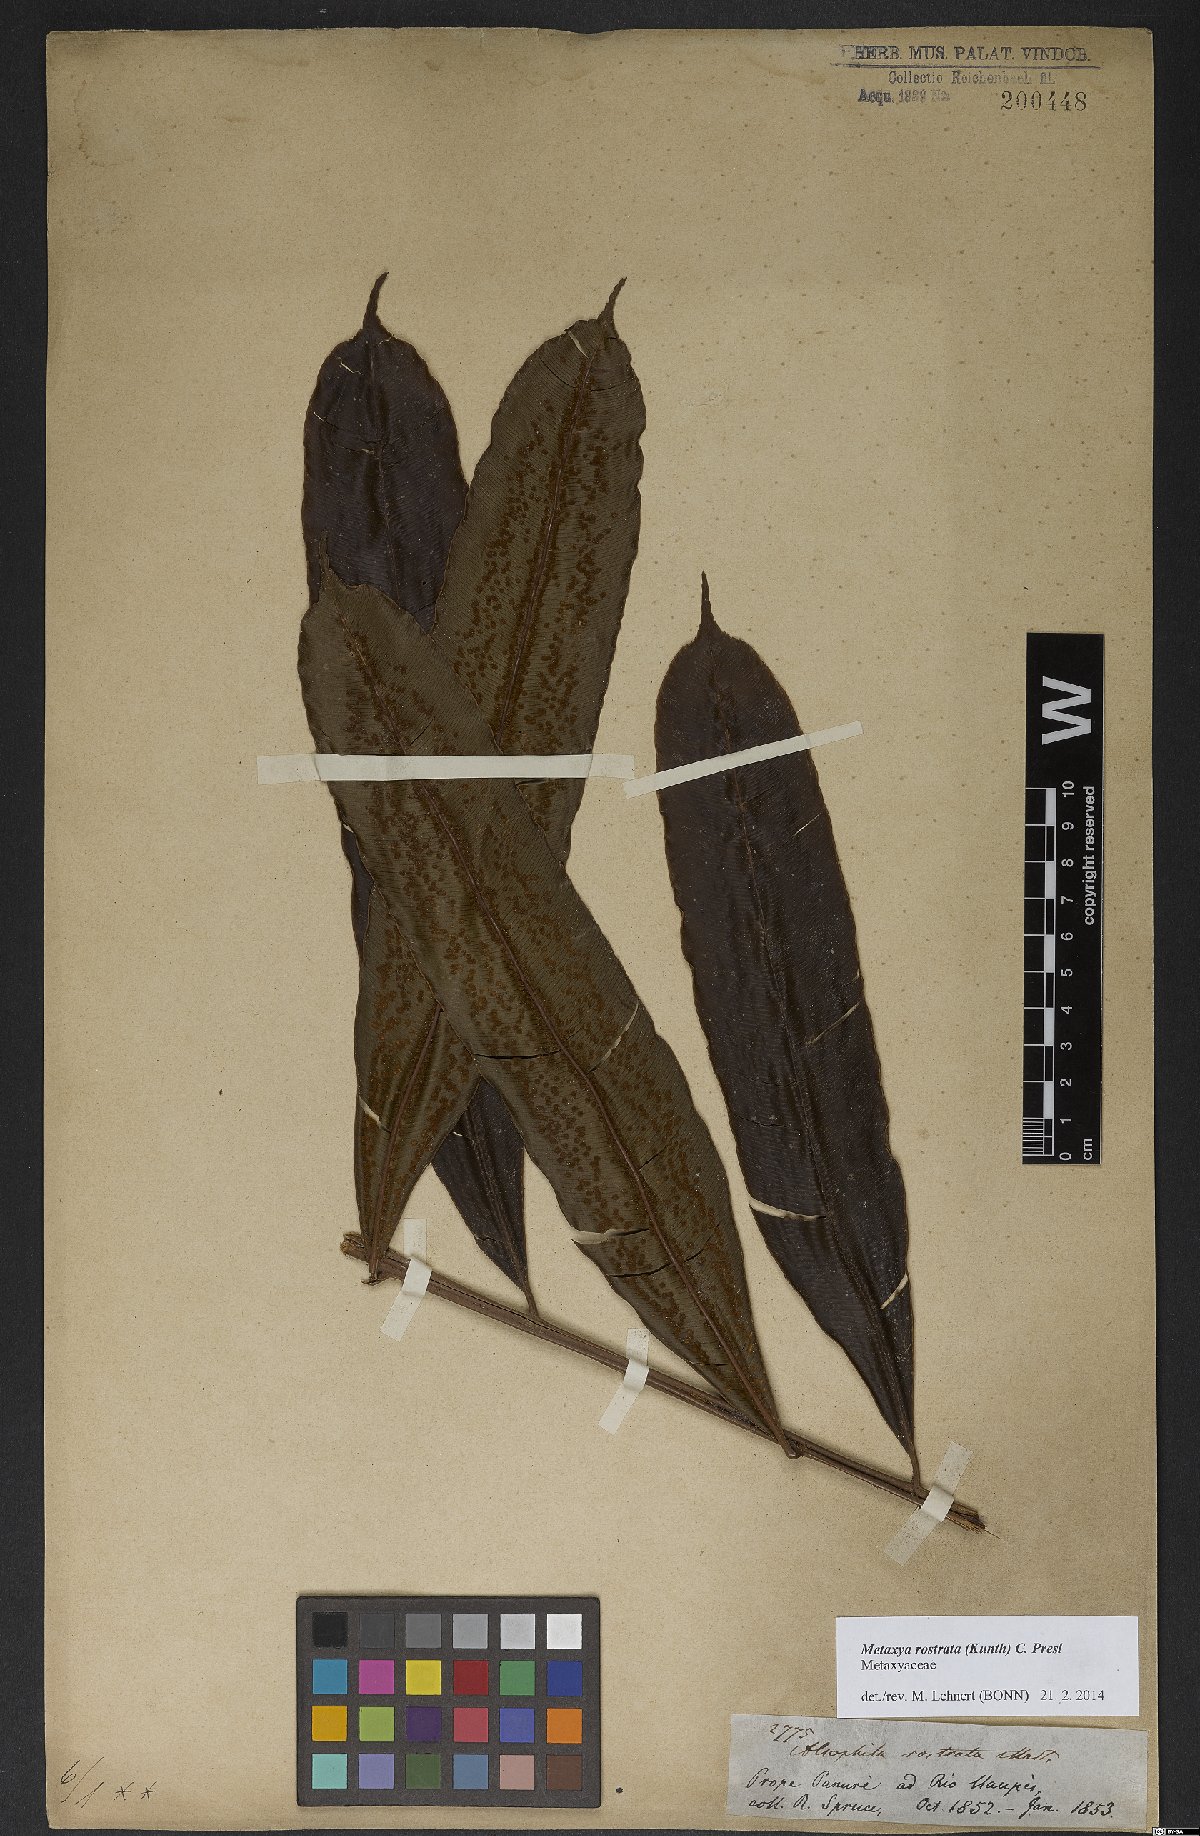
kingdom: Plantae
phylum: Tracheophyta
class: Polypodiopsida
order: Cyatheales
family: Metaxyaceae
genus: Metaxya
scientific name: Metaxya rostrata
